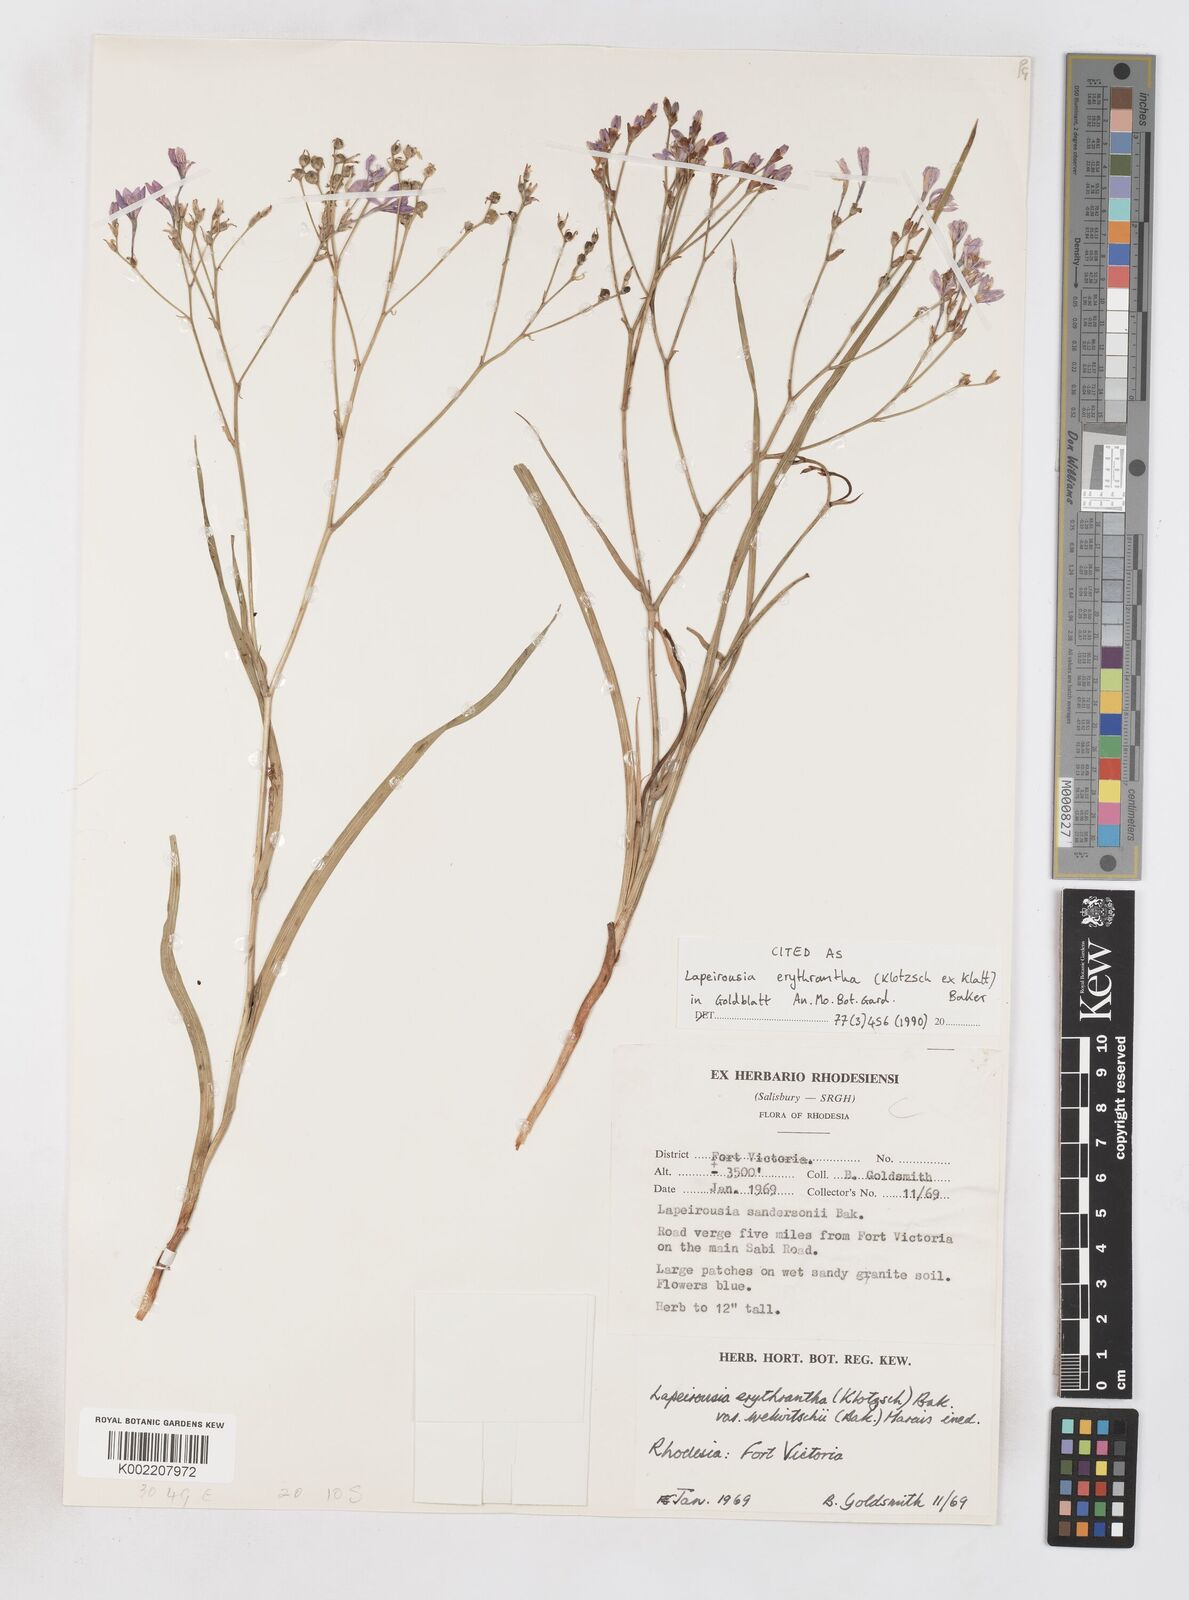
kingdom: Plantae
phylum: Tracheophyta
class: Liliopsida
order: Asparagales
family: Iridaceae
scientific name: Iridaceae
